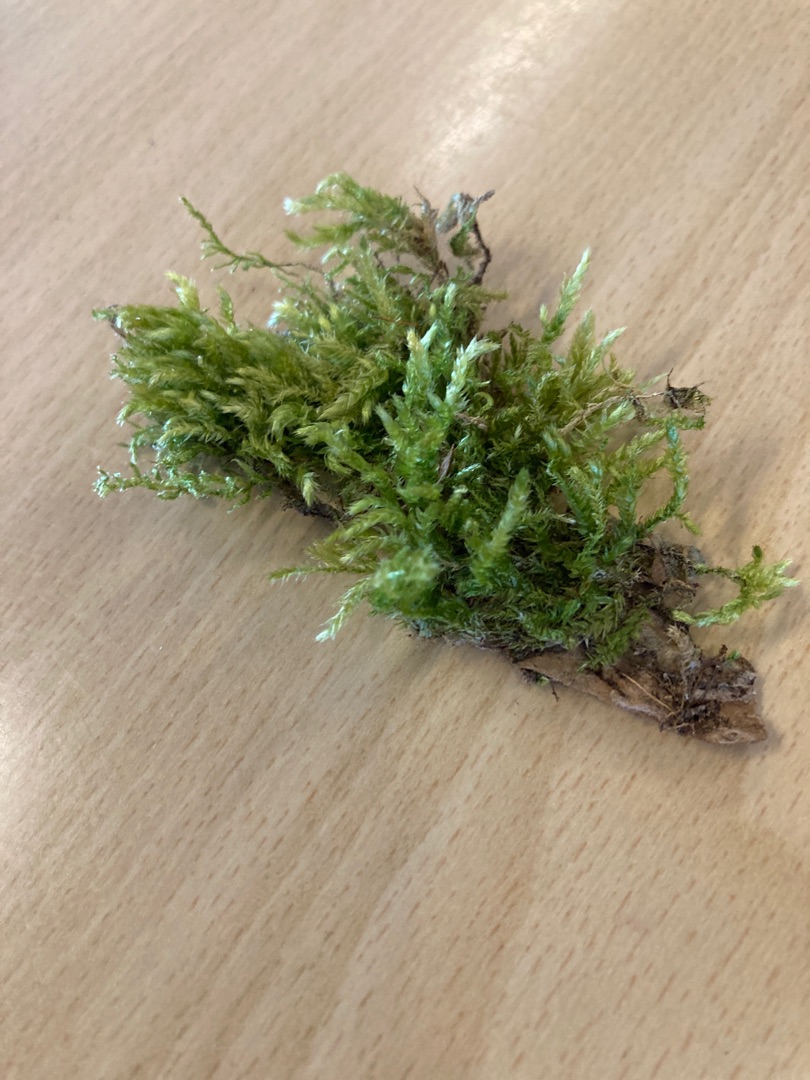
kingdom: Plantae
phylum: Bryophyta
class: Bryopsida
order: Hypnales
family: Brachytheciaceae
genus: Brachythecium
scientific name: Brachythecium rutabulum
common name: Almindelig kortkapsel
